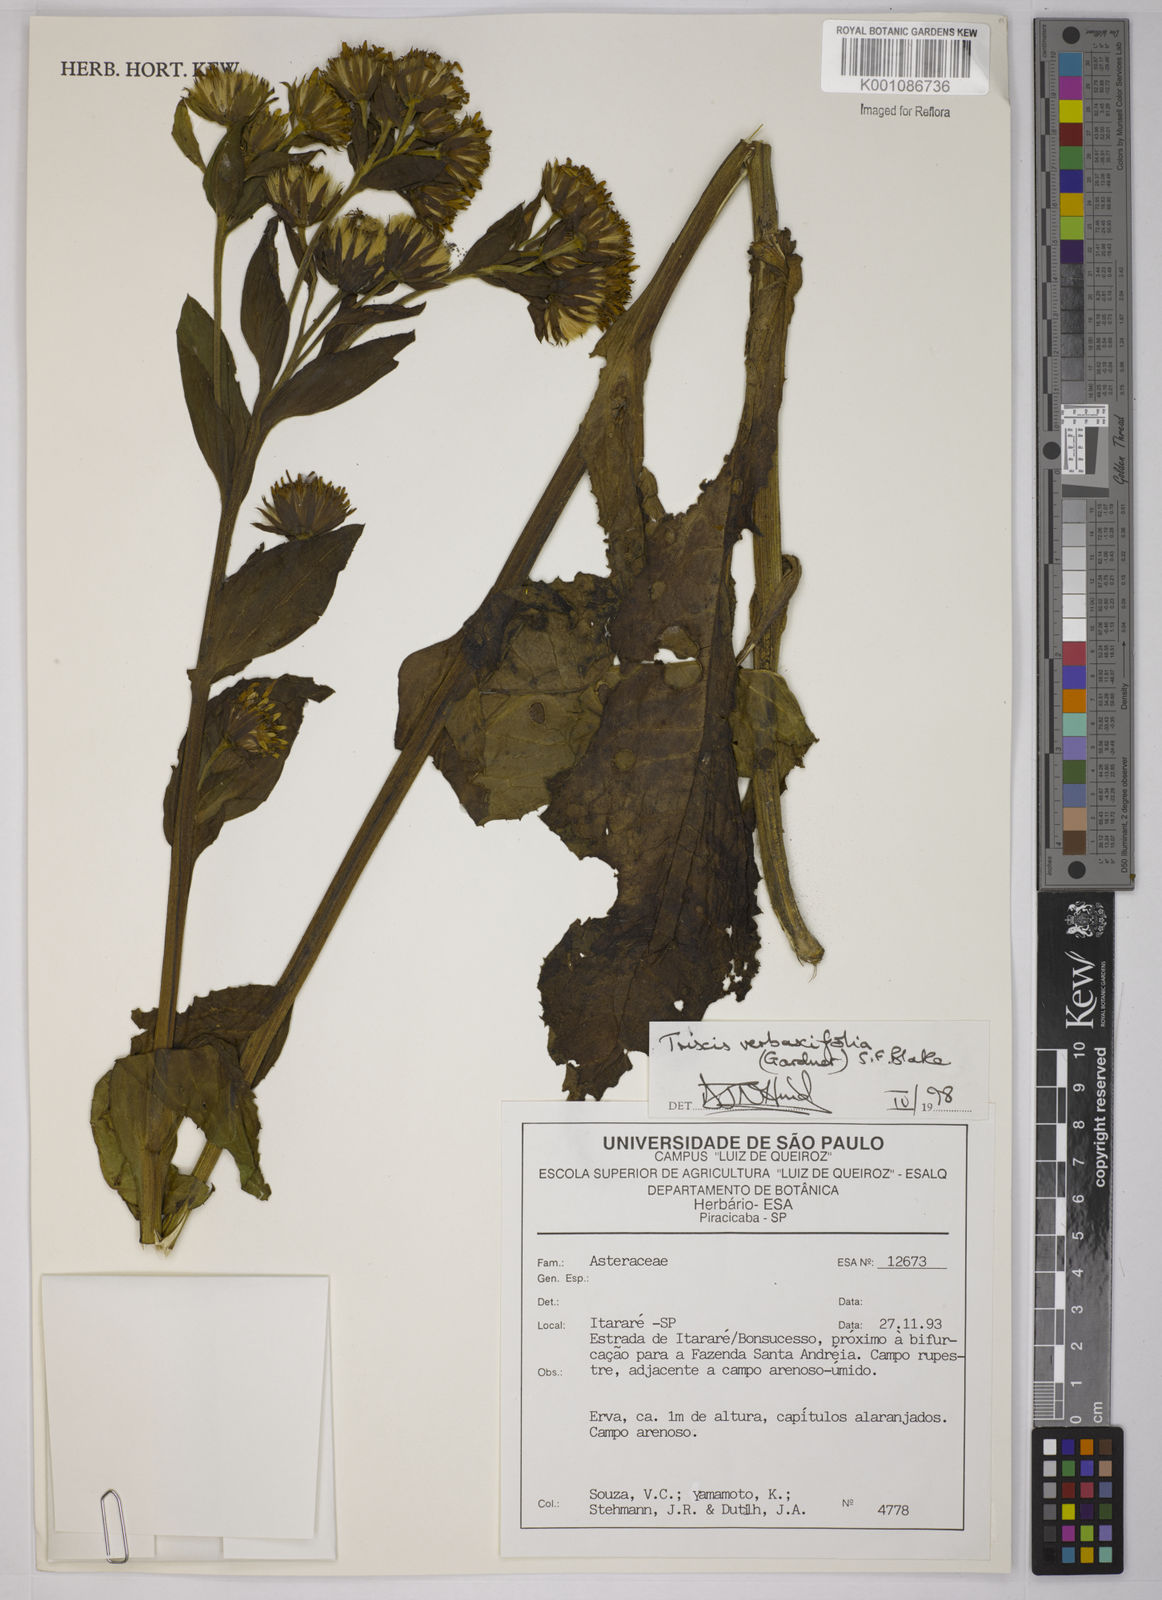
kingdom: Plantae
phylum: Tracheophyta
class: Magnoliopsida
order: Asterales
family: Asteraceae
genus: Trixis
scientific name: Trixis verbascifolia
